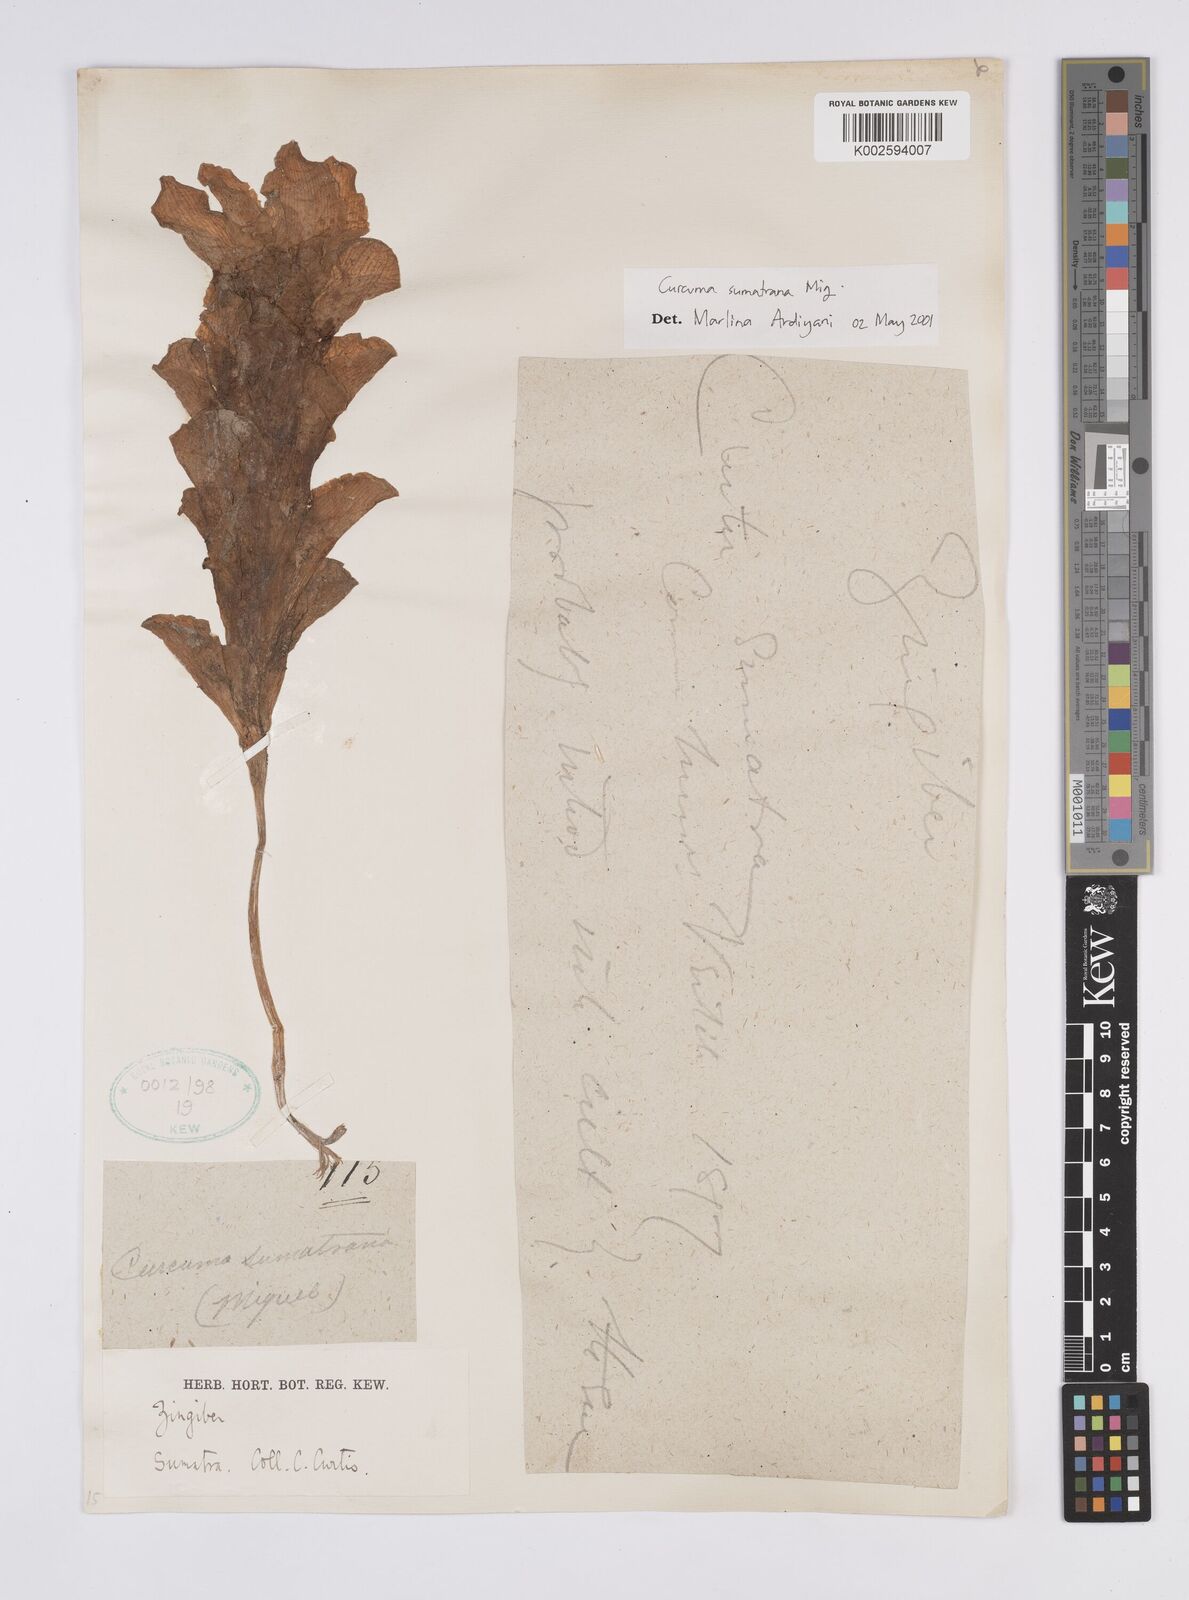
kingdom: Plantae
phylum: Tracheophyta
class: Liliopsida
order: Zingiberales
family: Zingiberaceae
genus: Curcuma
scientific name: Curcuma sumatrana
